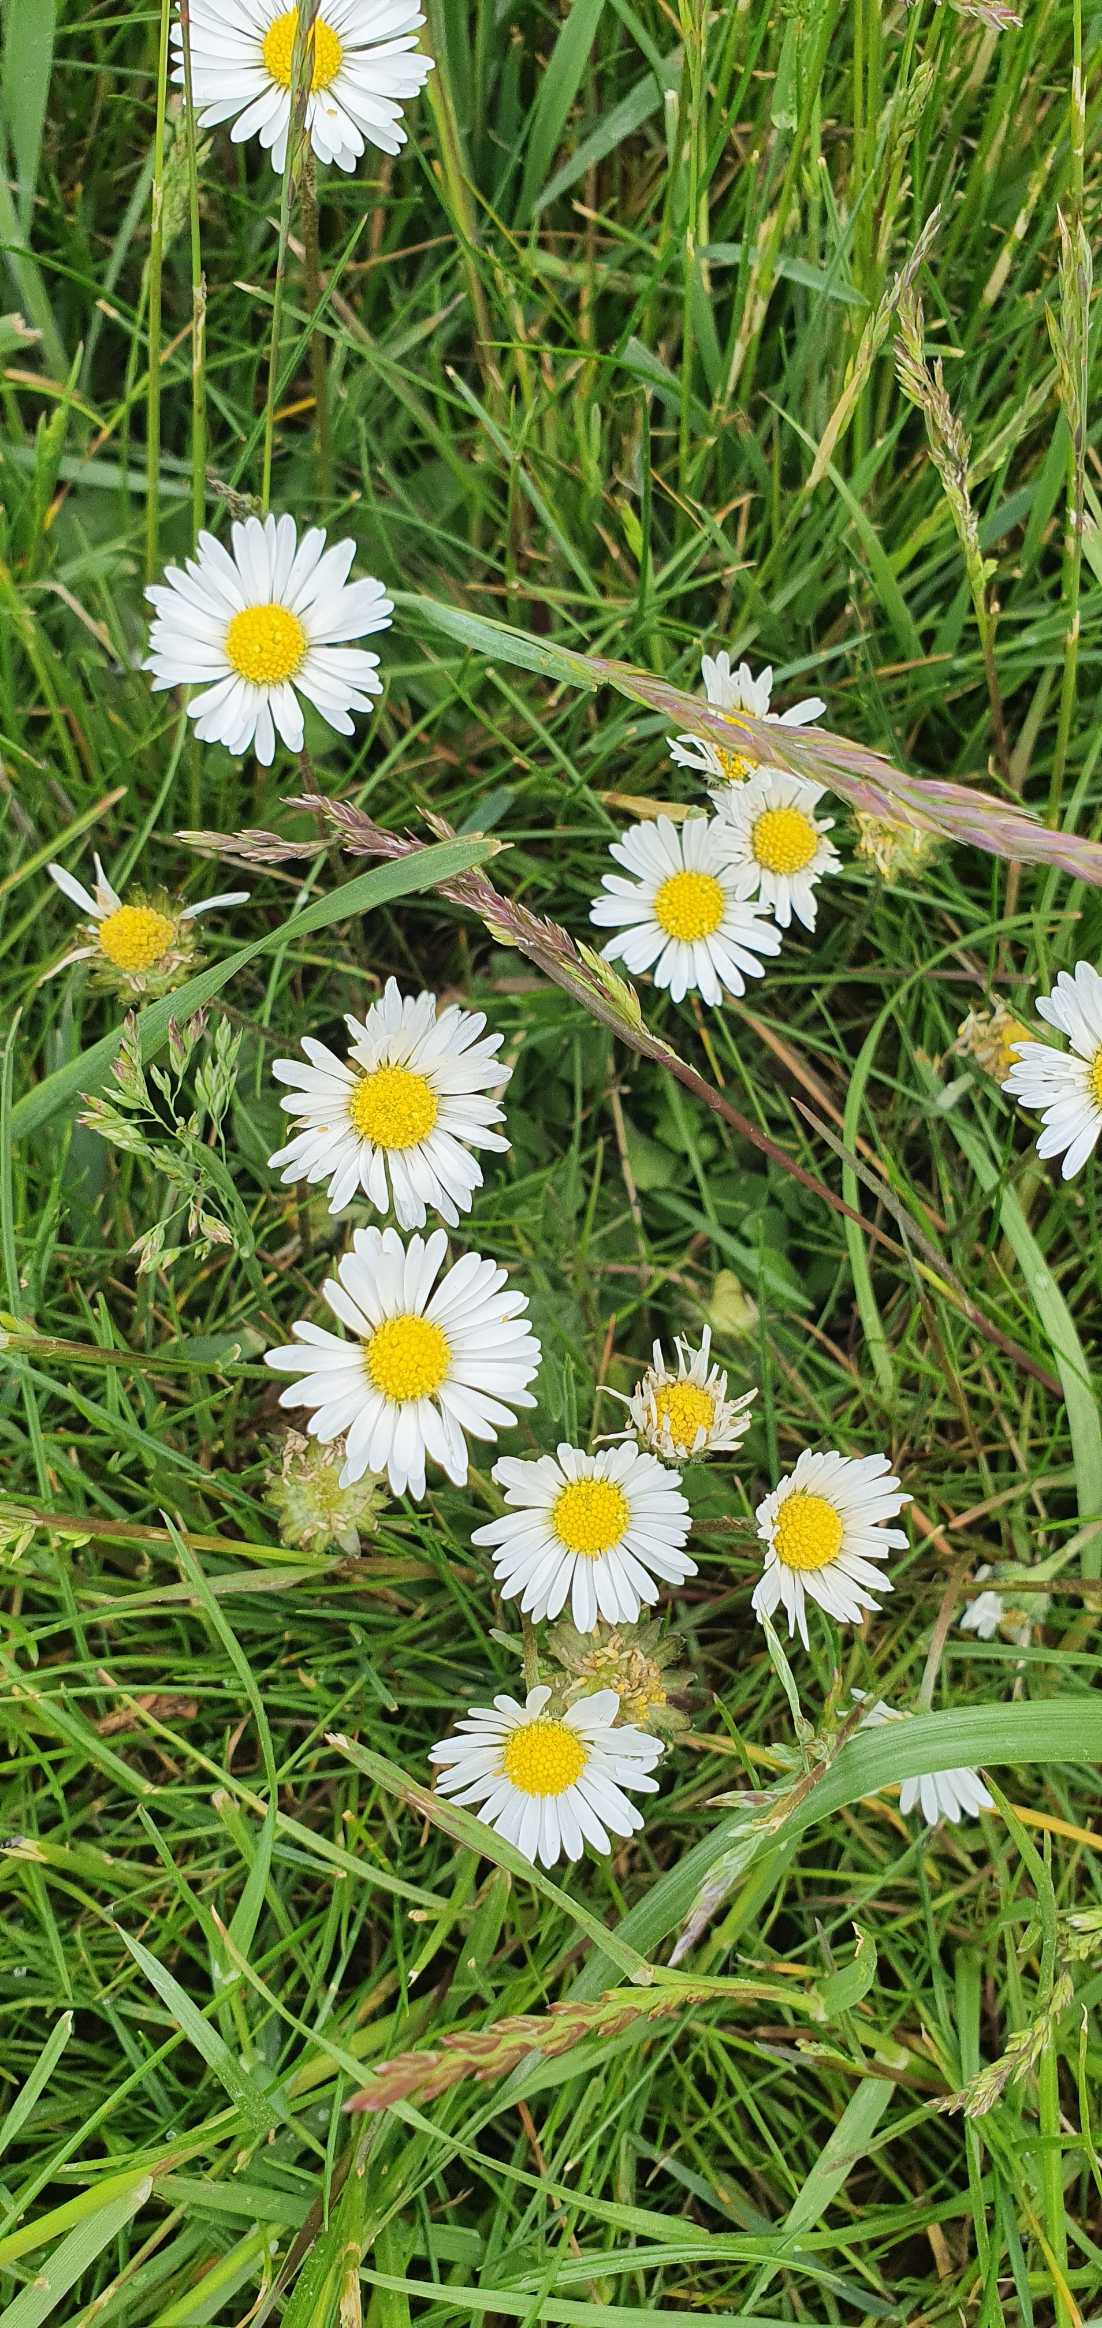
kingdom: Plantae
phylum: Tracheophyta
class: Magnoliopsida
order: Asterales
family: Asteraceae
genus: Bellis
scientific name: Bellis perennis
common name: Tusindfryd
